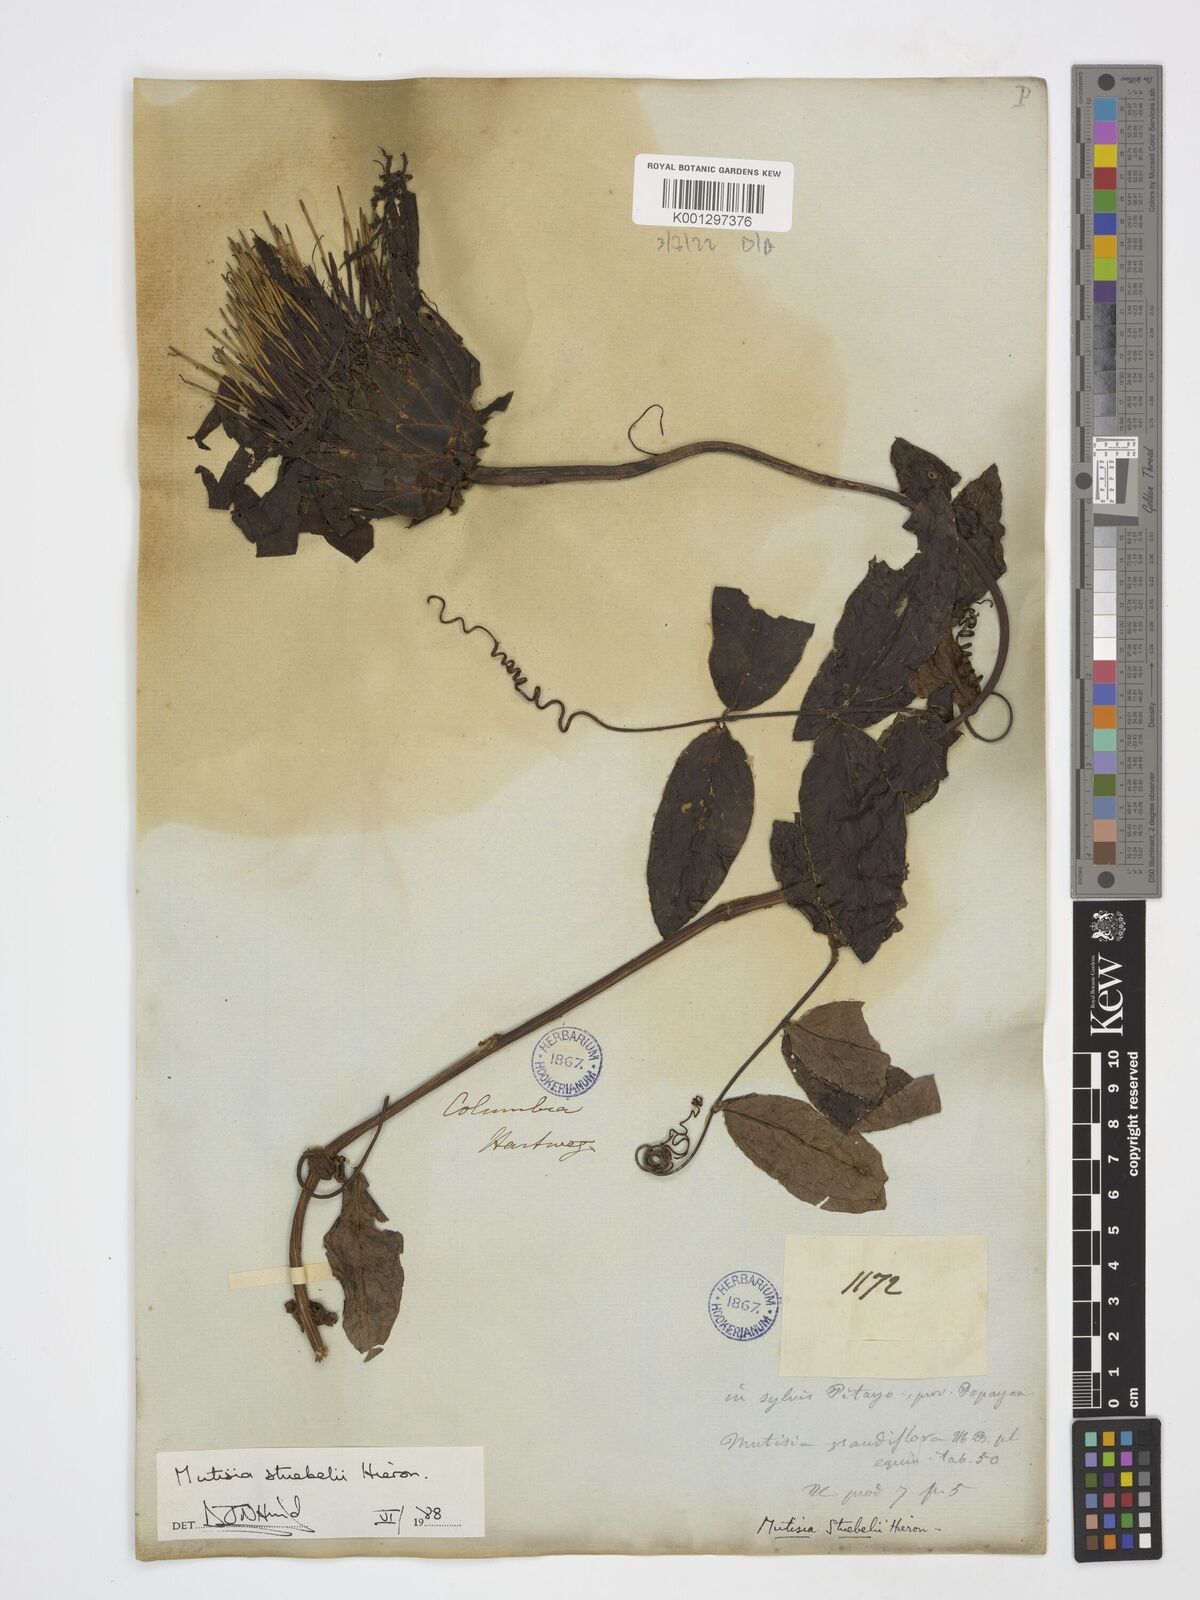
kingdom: Plantae
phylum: Tracheophyta
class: Magnoliopsida
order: Asterales
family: Asteraceae
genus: Mutisia
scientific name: Mutisia stuebelii
